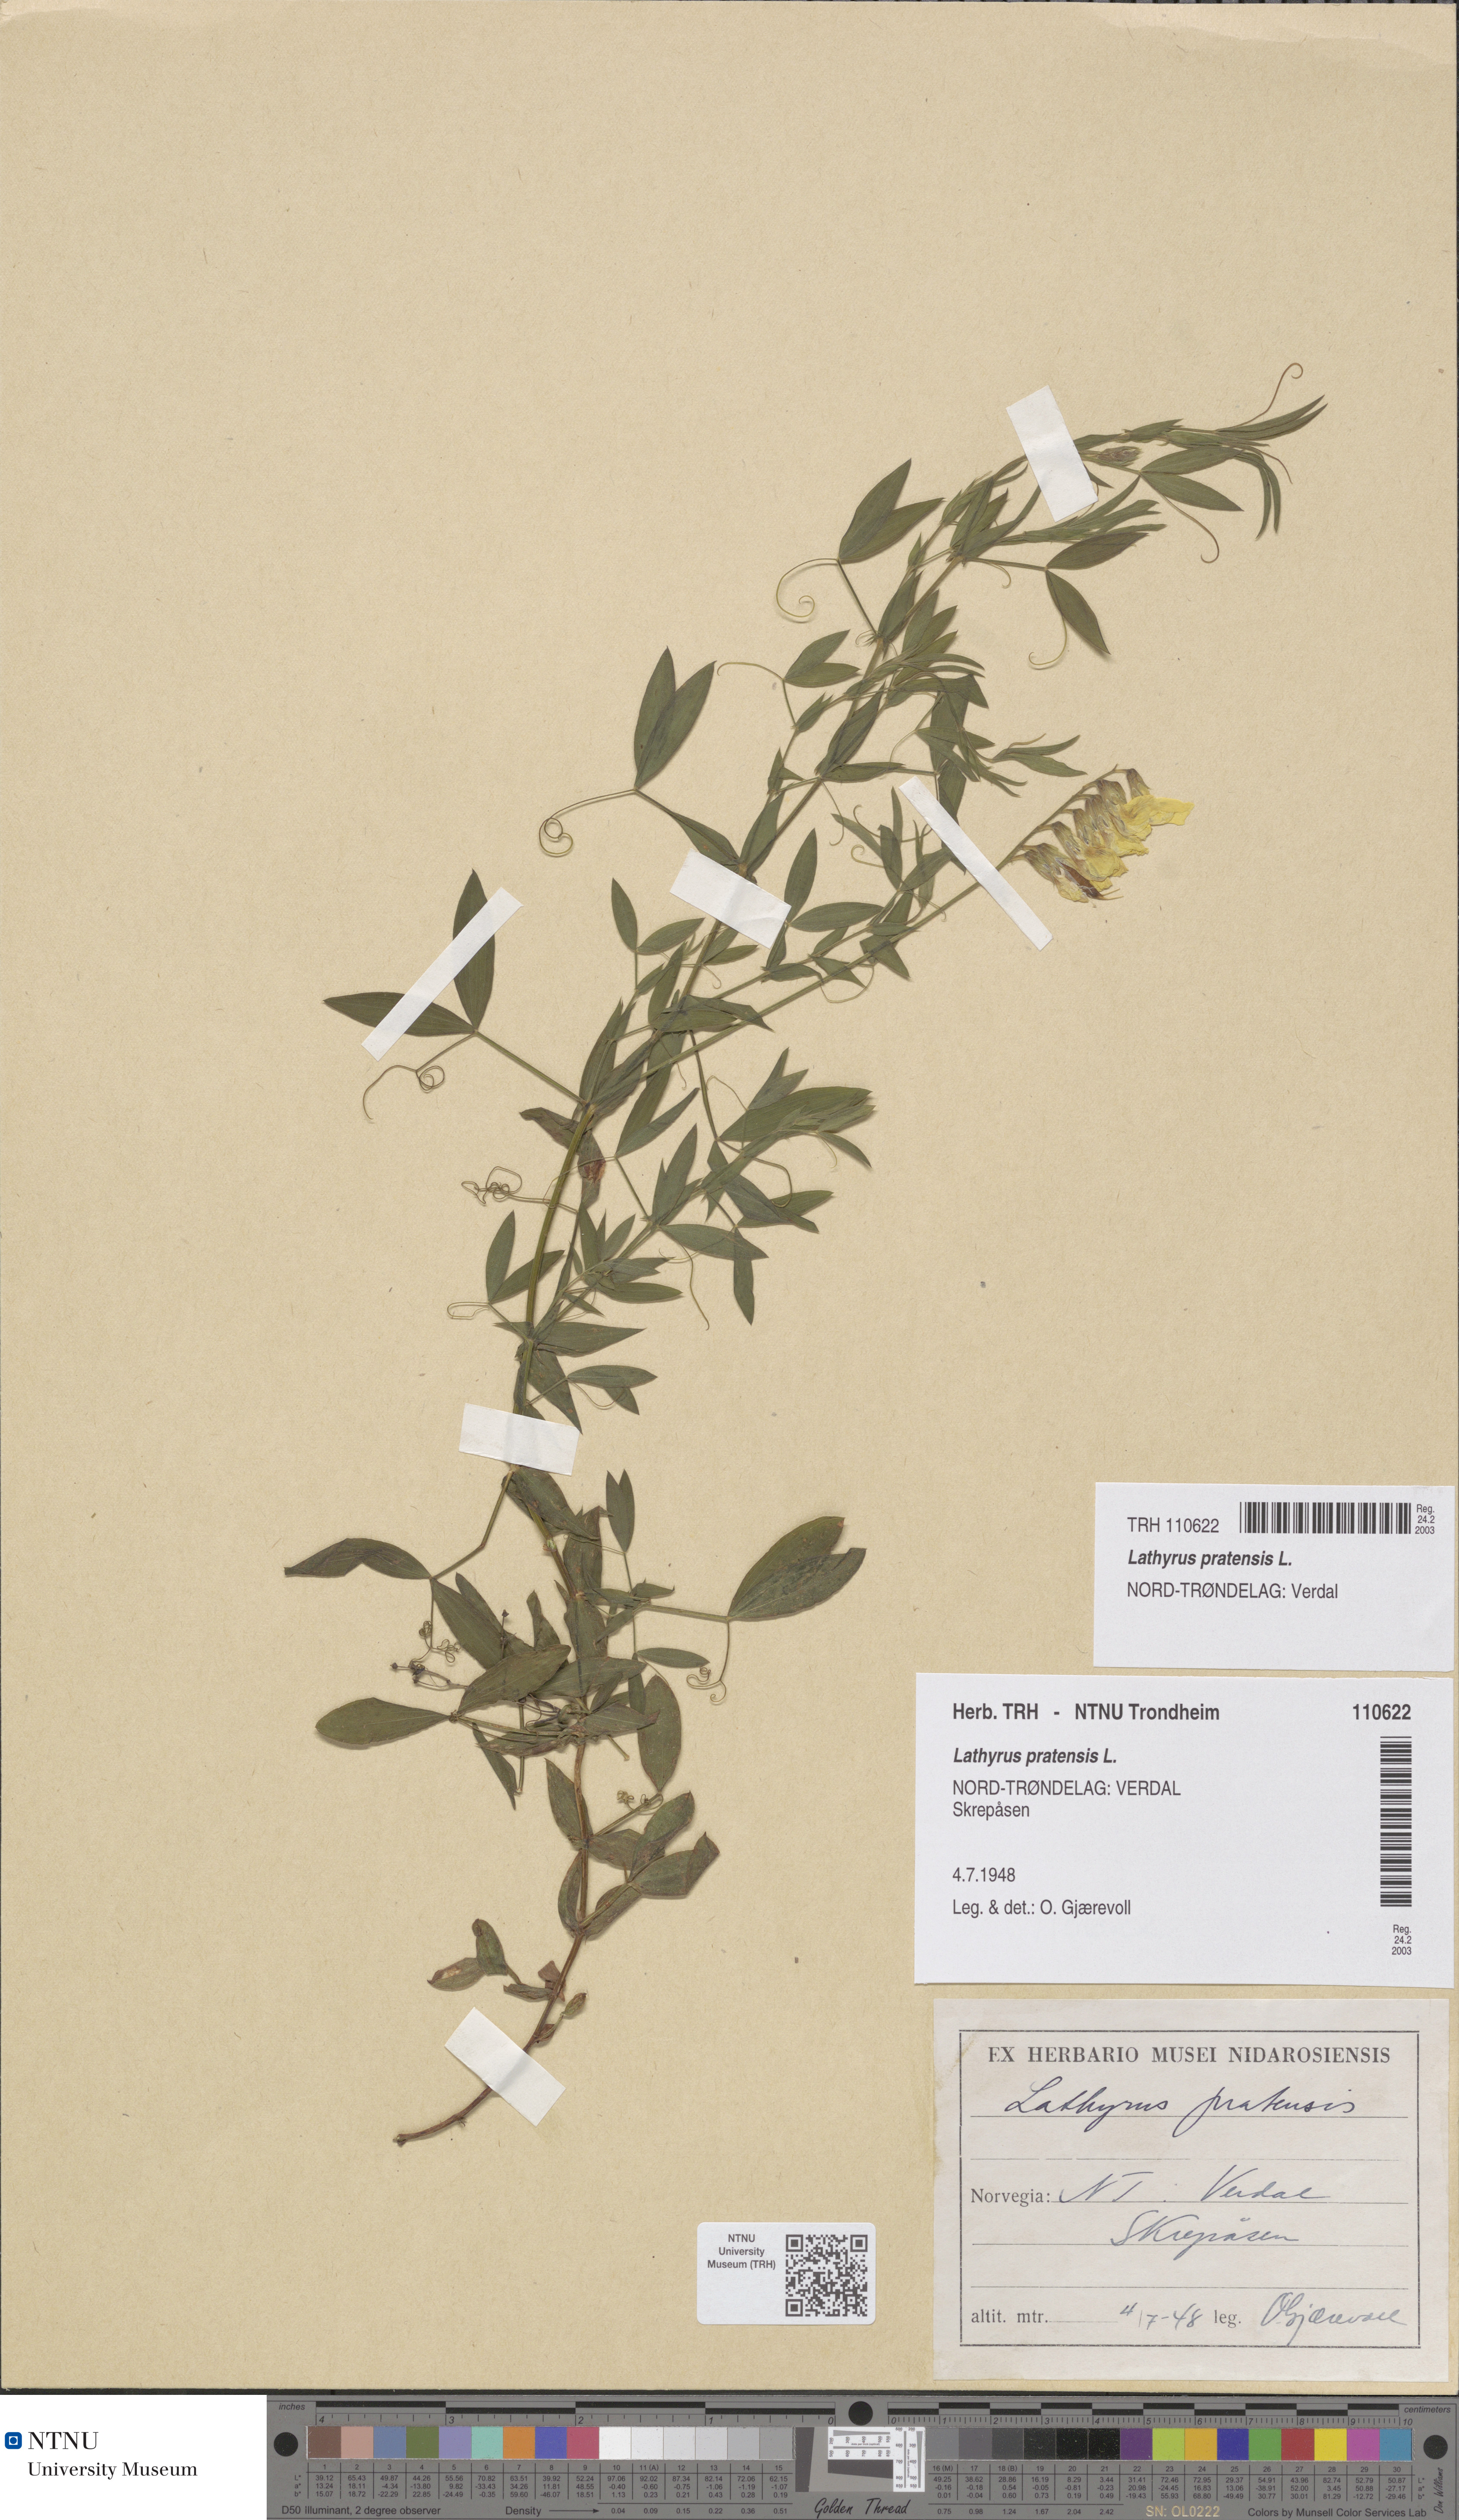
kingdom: Plantae
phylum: Tracheophyta
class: Magnoliopsida
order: Fabales
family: Fabaceae
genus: Lathyrus
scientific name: Lathyrus pratensis
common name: Meadow vetchling
